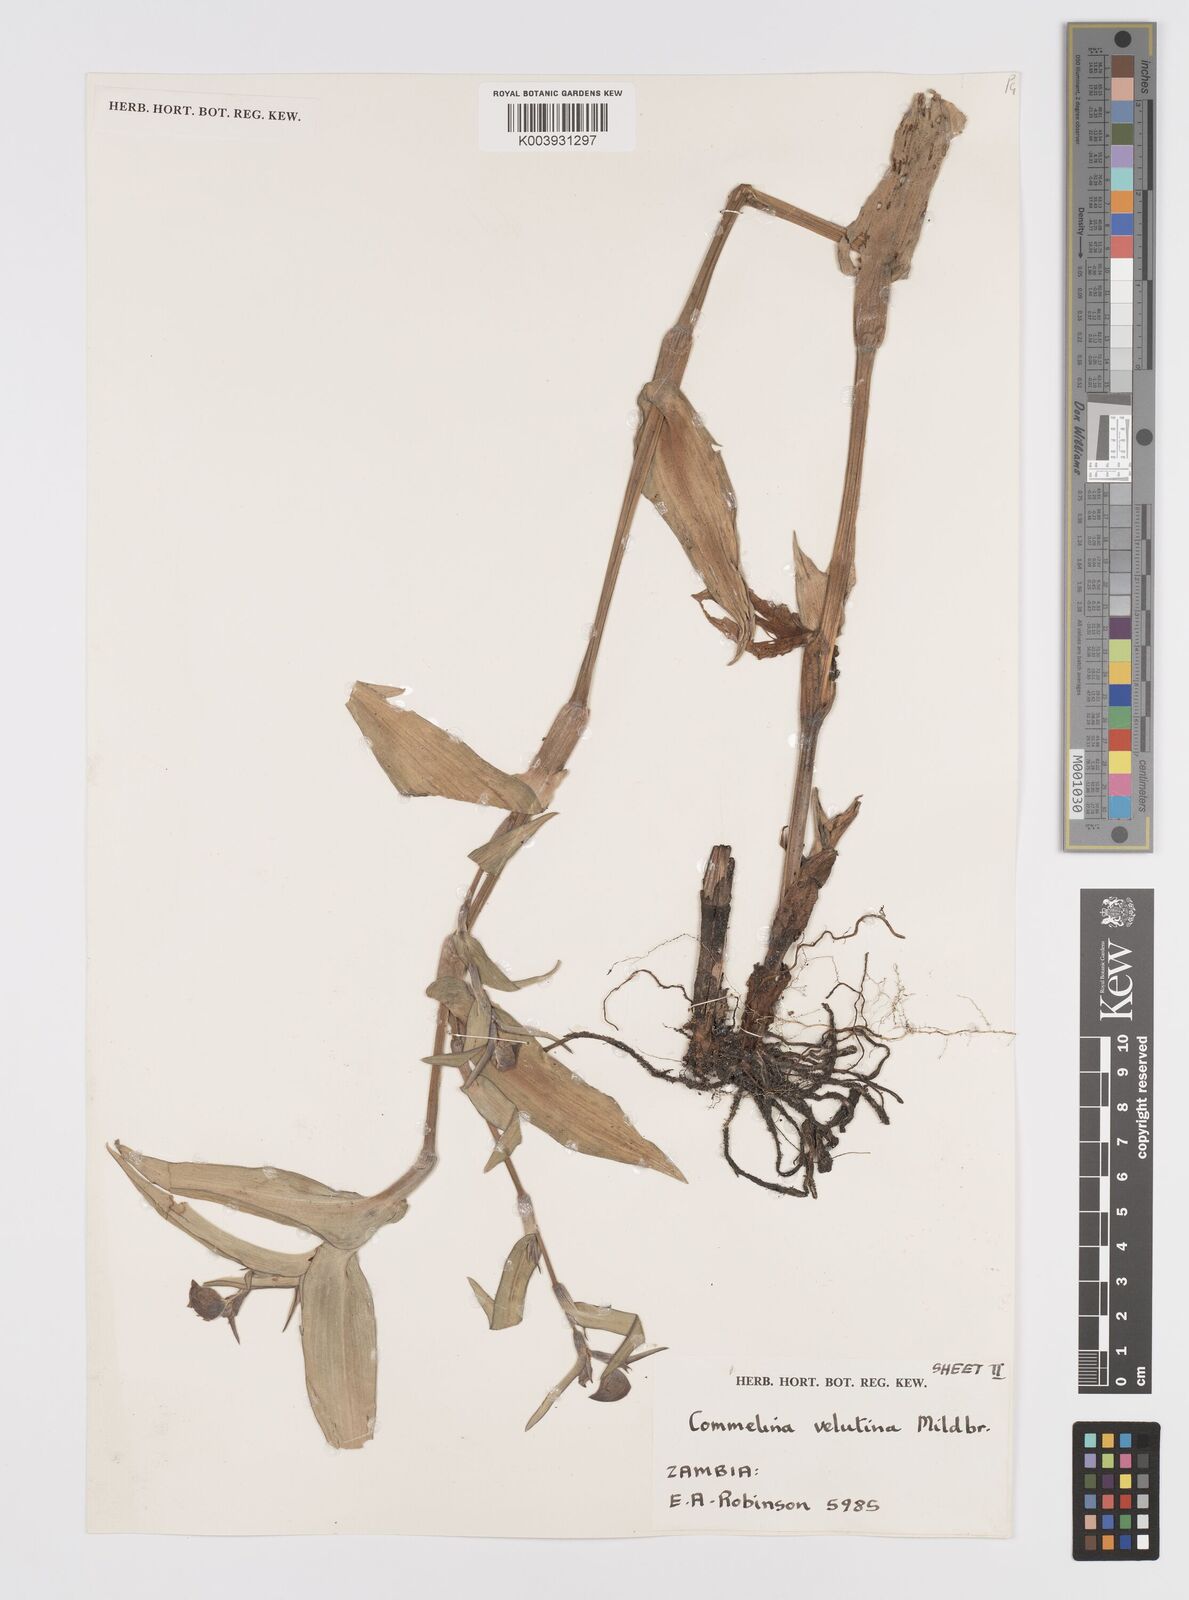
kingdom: Plantae
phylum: Tracheophyta
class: Liliopsida
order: Commelinales
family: Commelinaceae
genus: Commelina
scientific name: Commelina velutina
